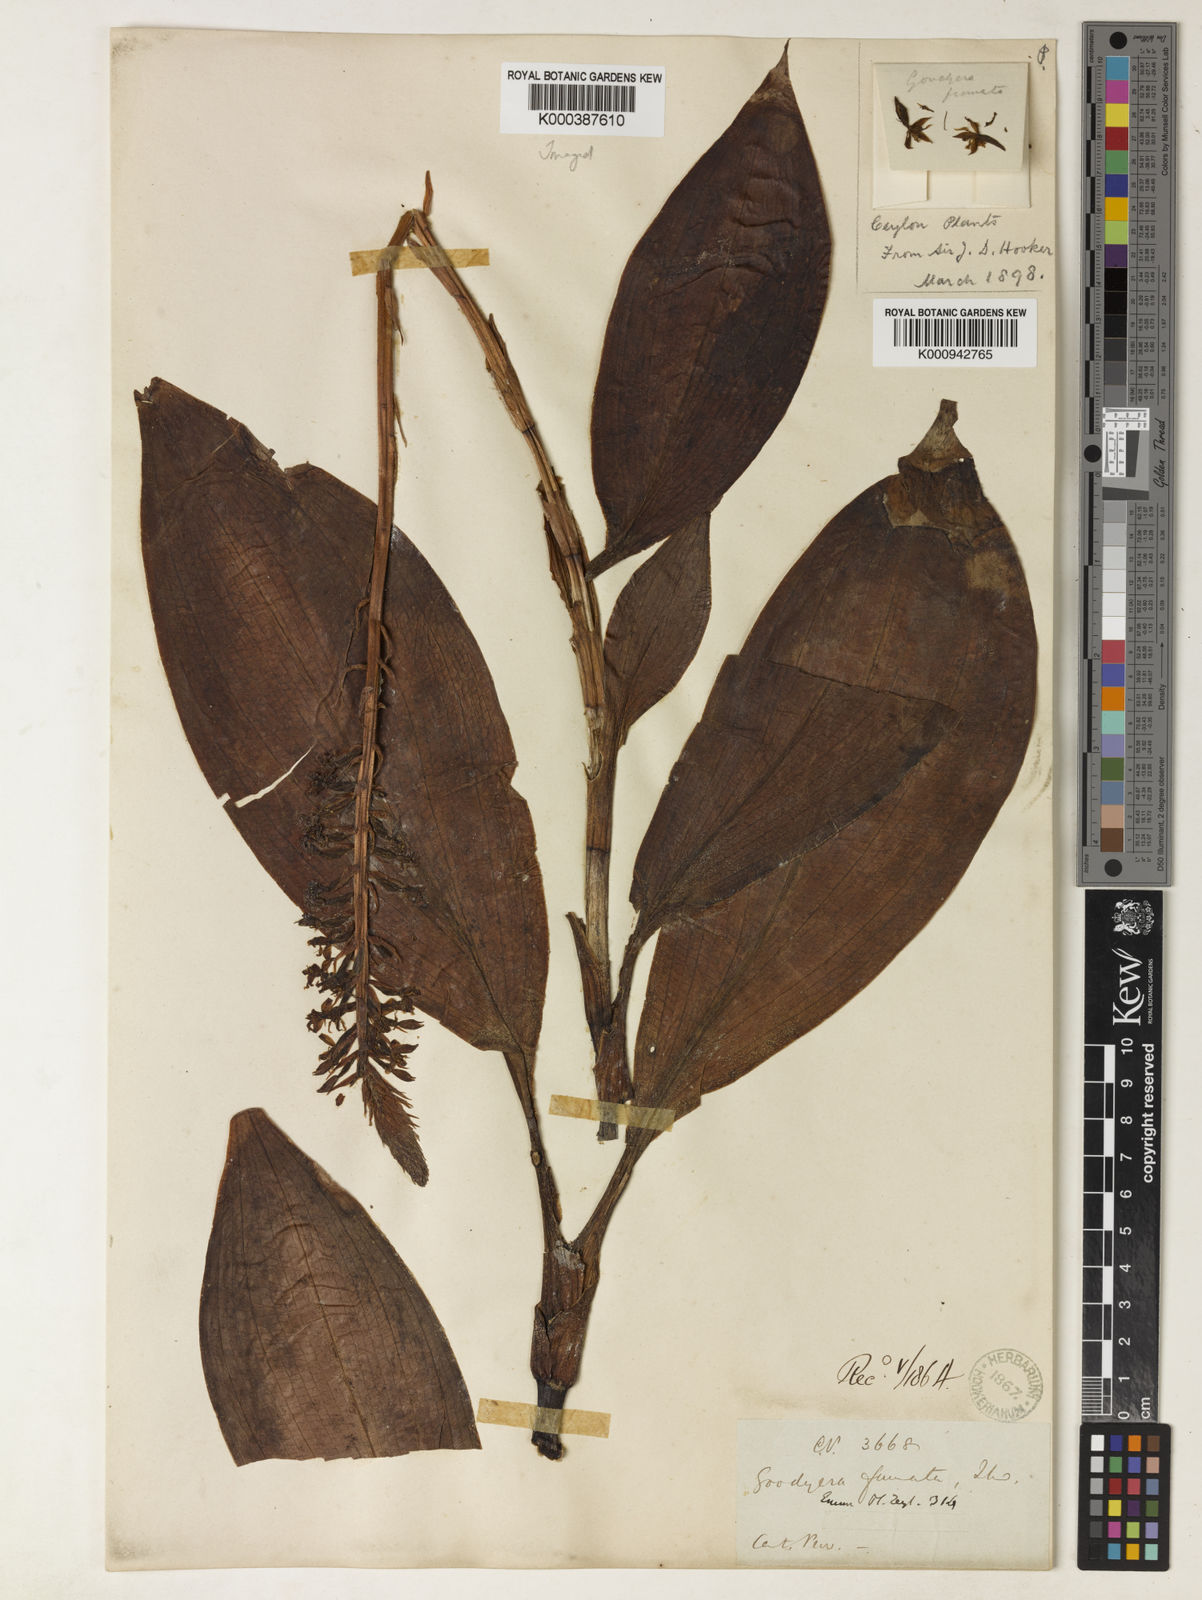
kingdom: Plantae
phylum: Tracheophyta
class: Liliopsida
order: Asparagales
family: Orchidaceae
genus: Goodyera
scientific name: Goodyera fumata
